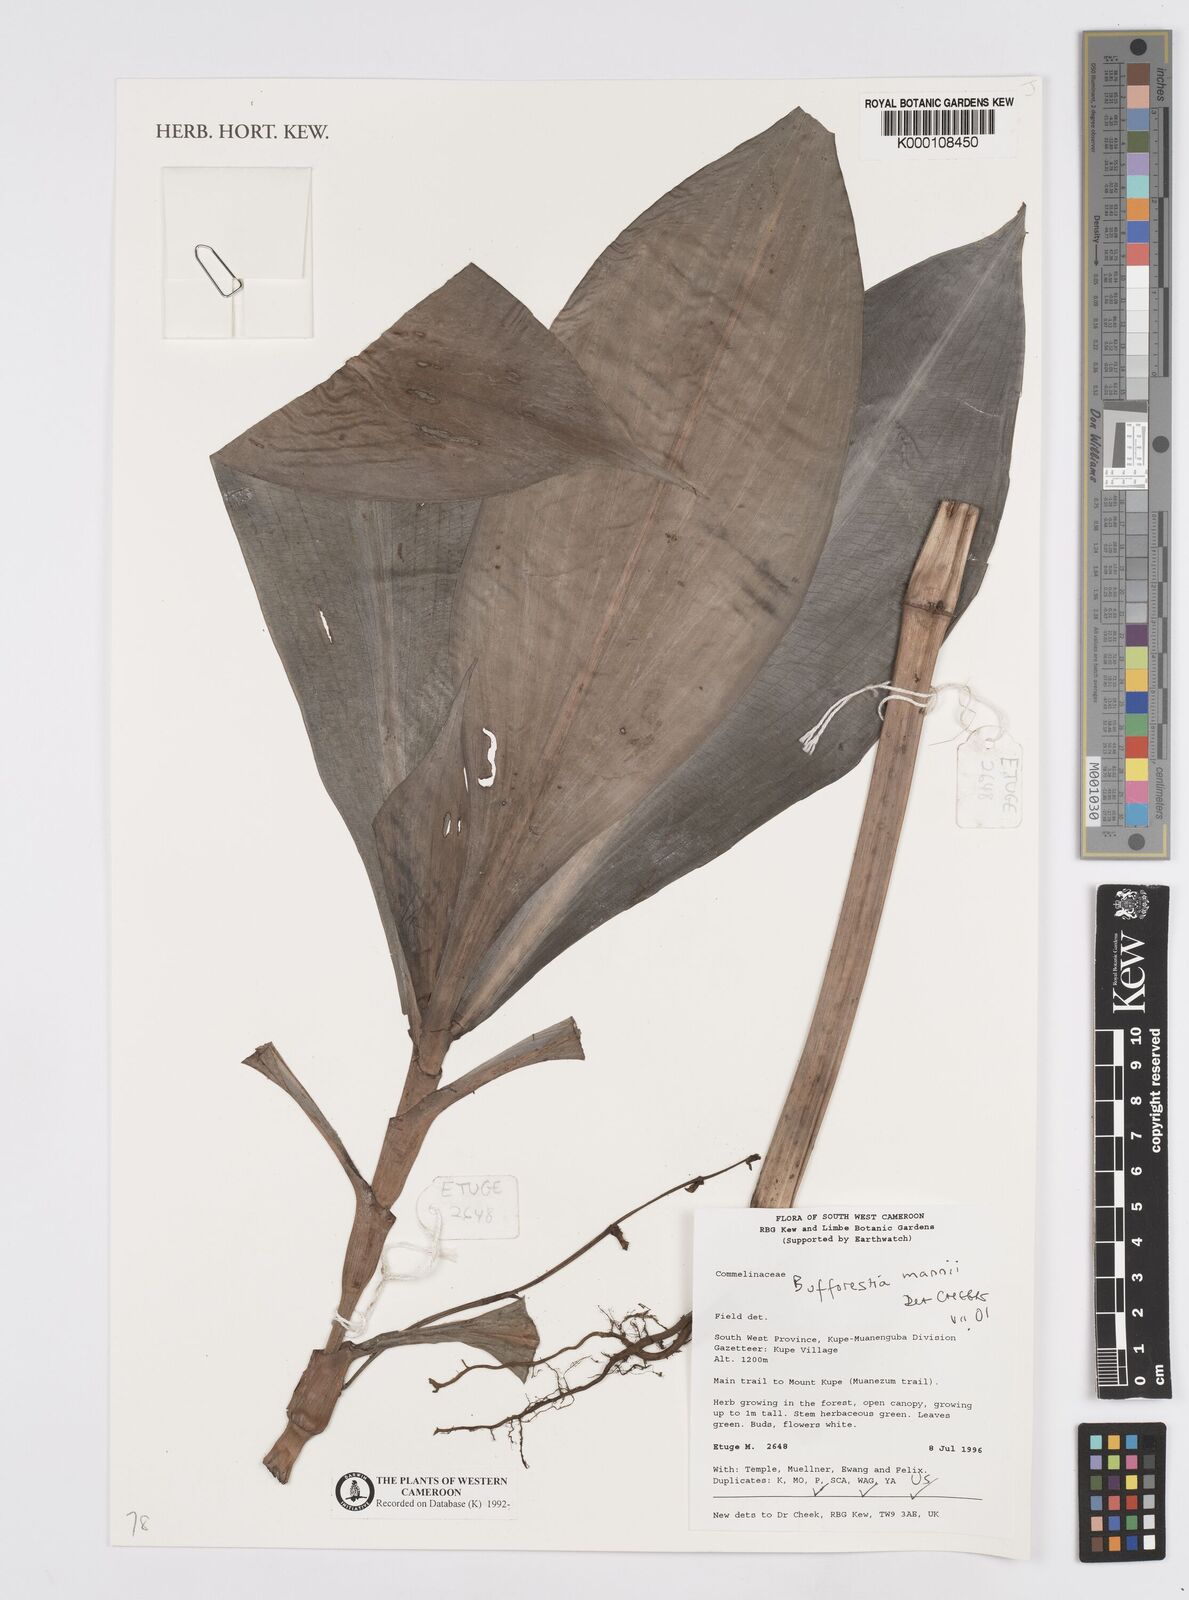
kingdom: Plantae
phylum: Tracheophyta
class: Liliopsida
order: Commelinales
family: Commelinaceae
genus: Buforrestia
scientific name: Buforrestia mannii
